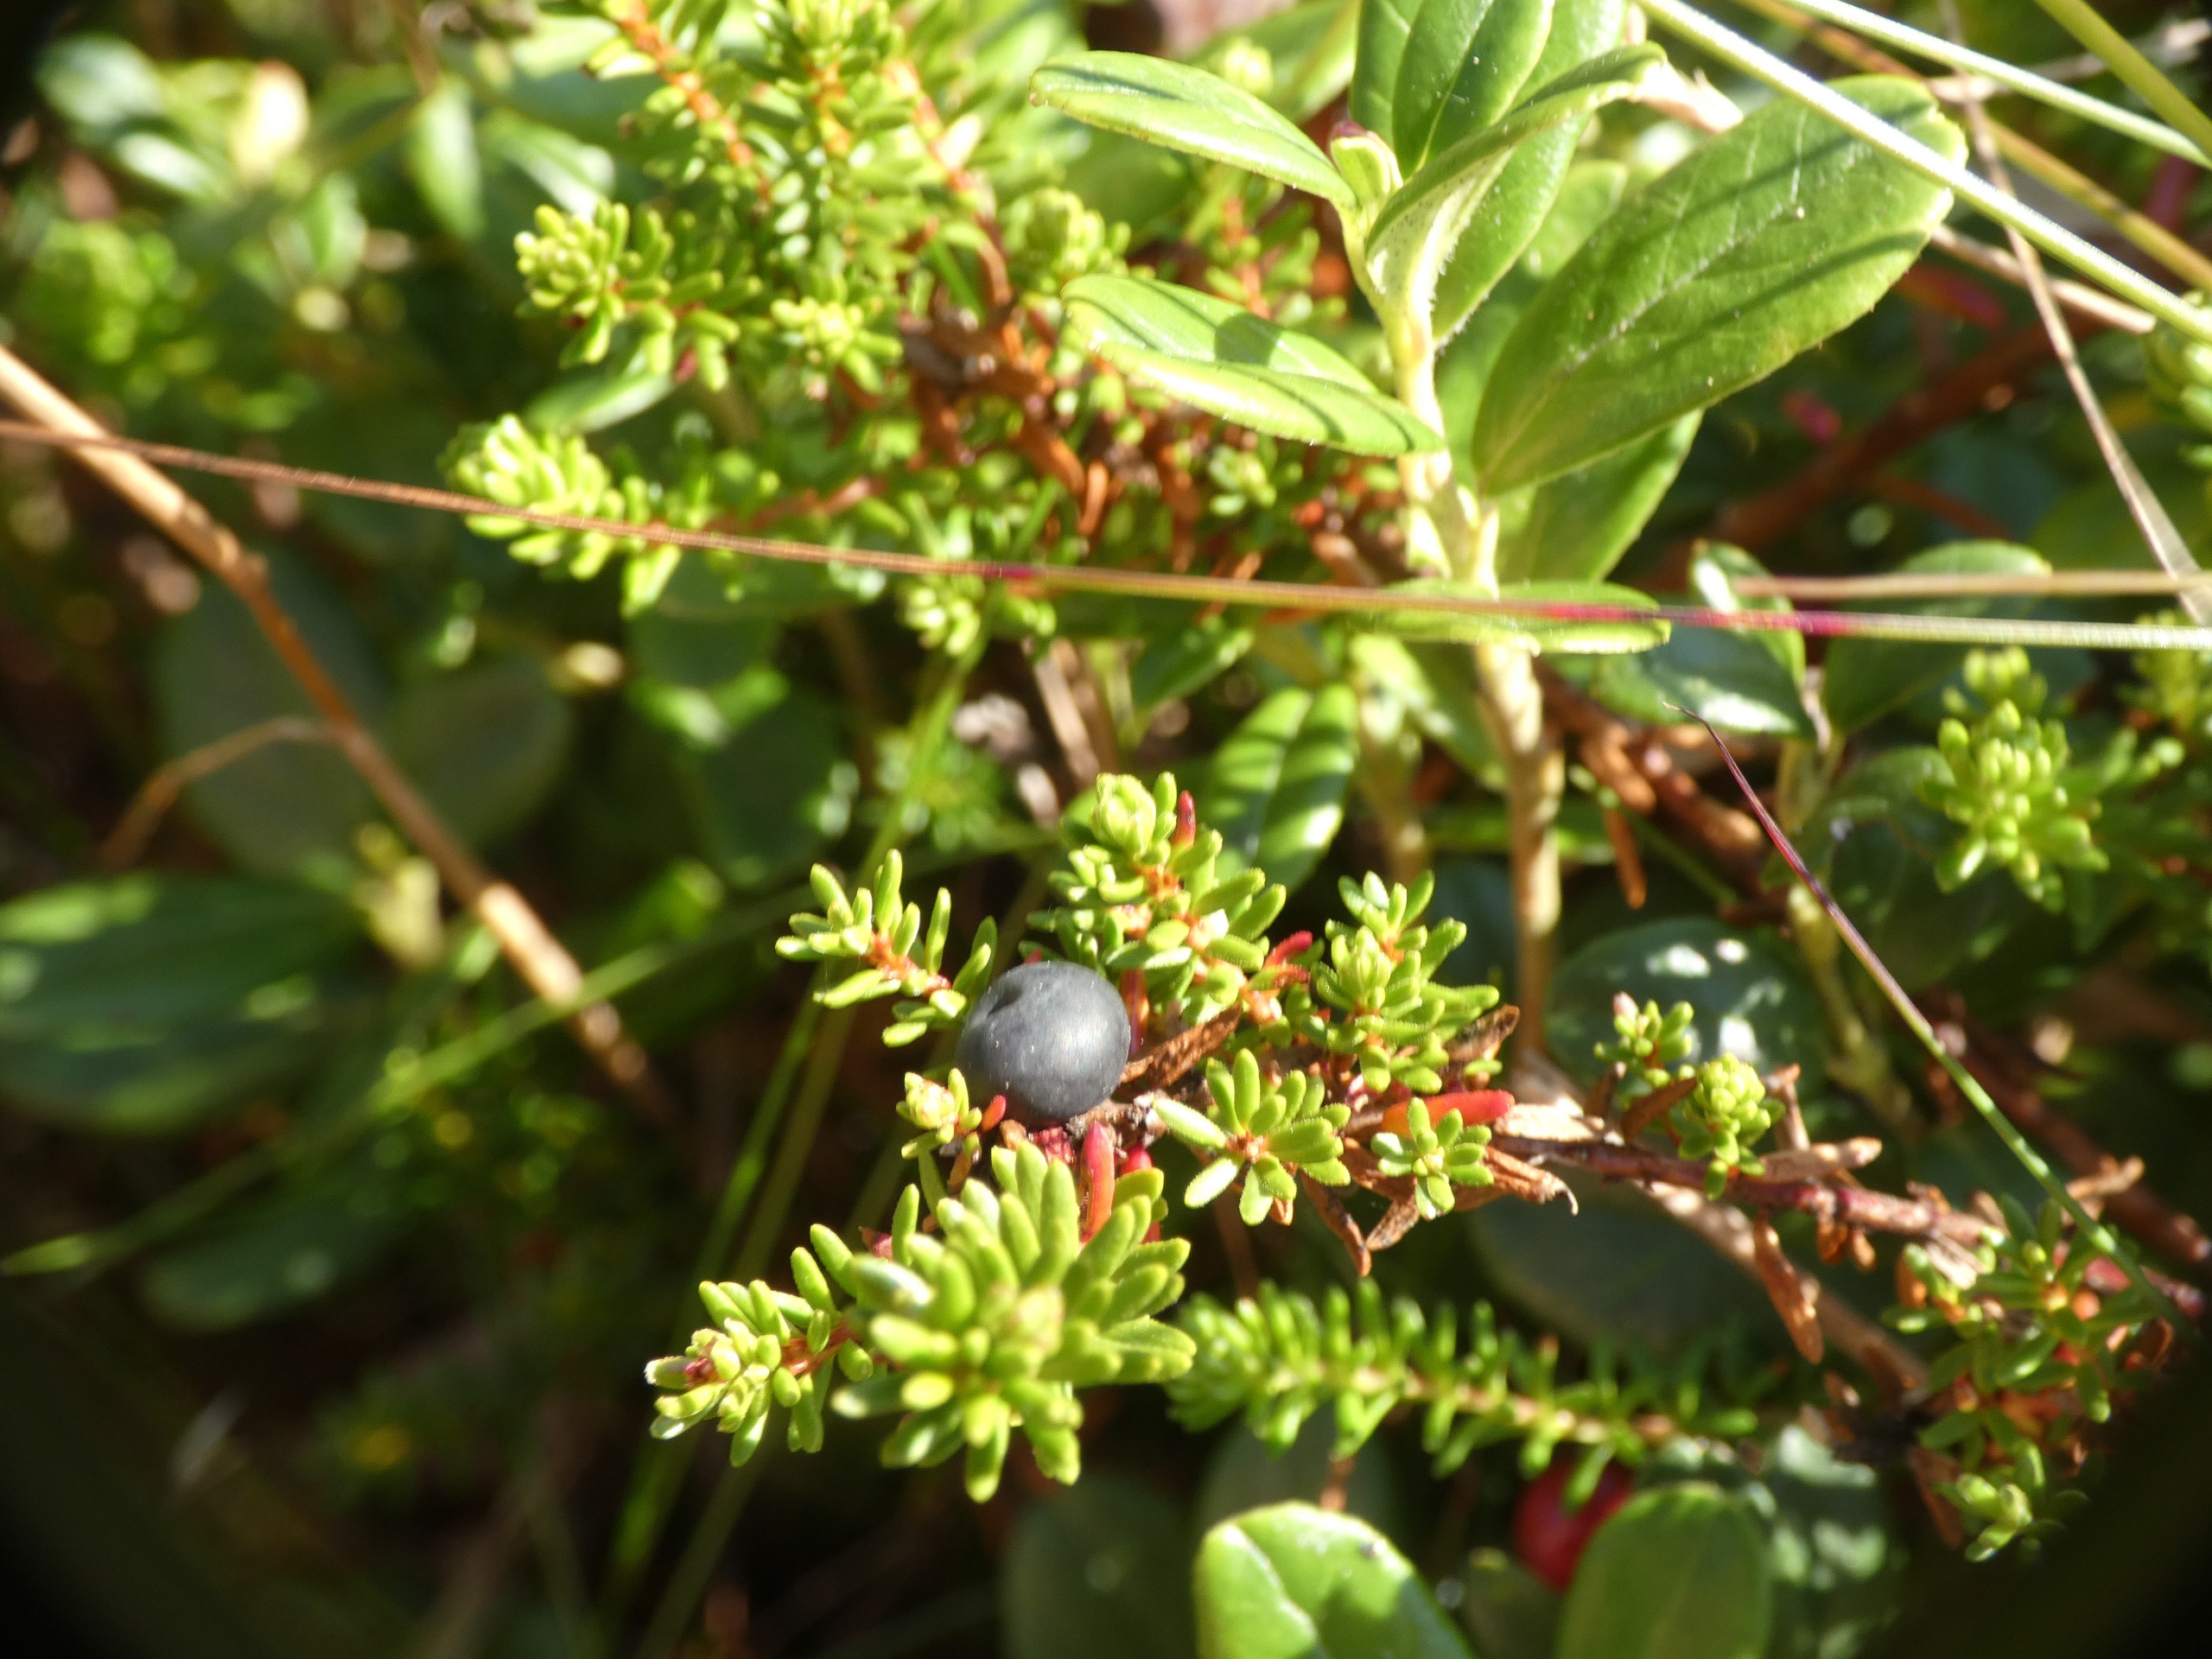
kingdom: Plantae
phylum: Tracheophyta
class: Magnoliopsida
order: Ericales
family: Ericaceae
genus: Empetrum
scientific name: Empetrum nigrum
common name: Revling
